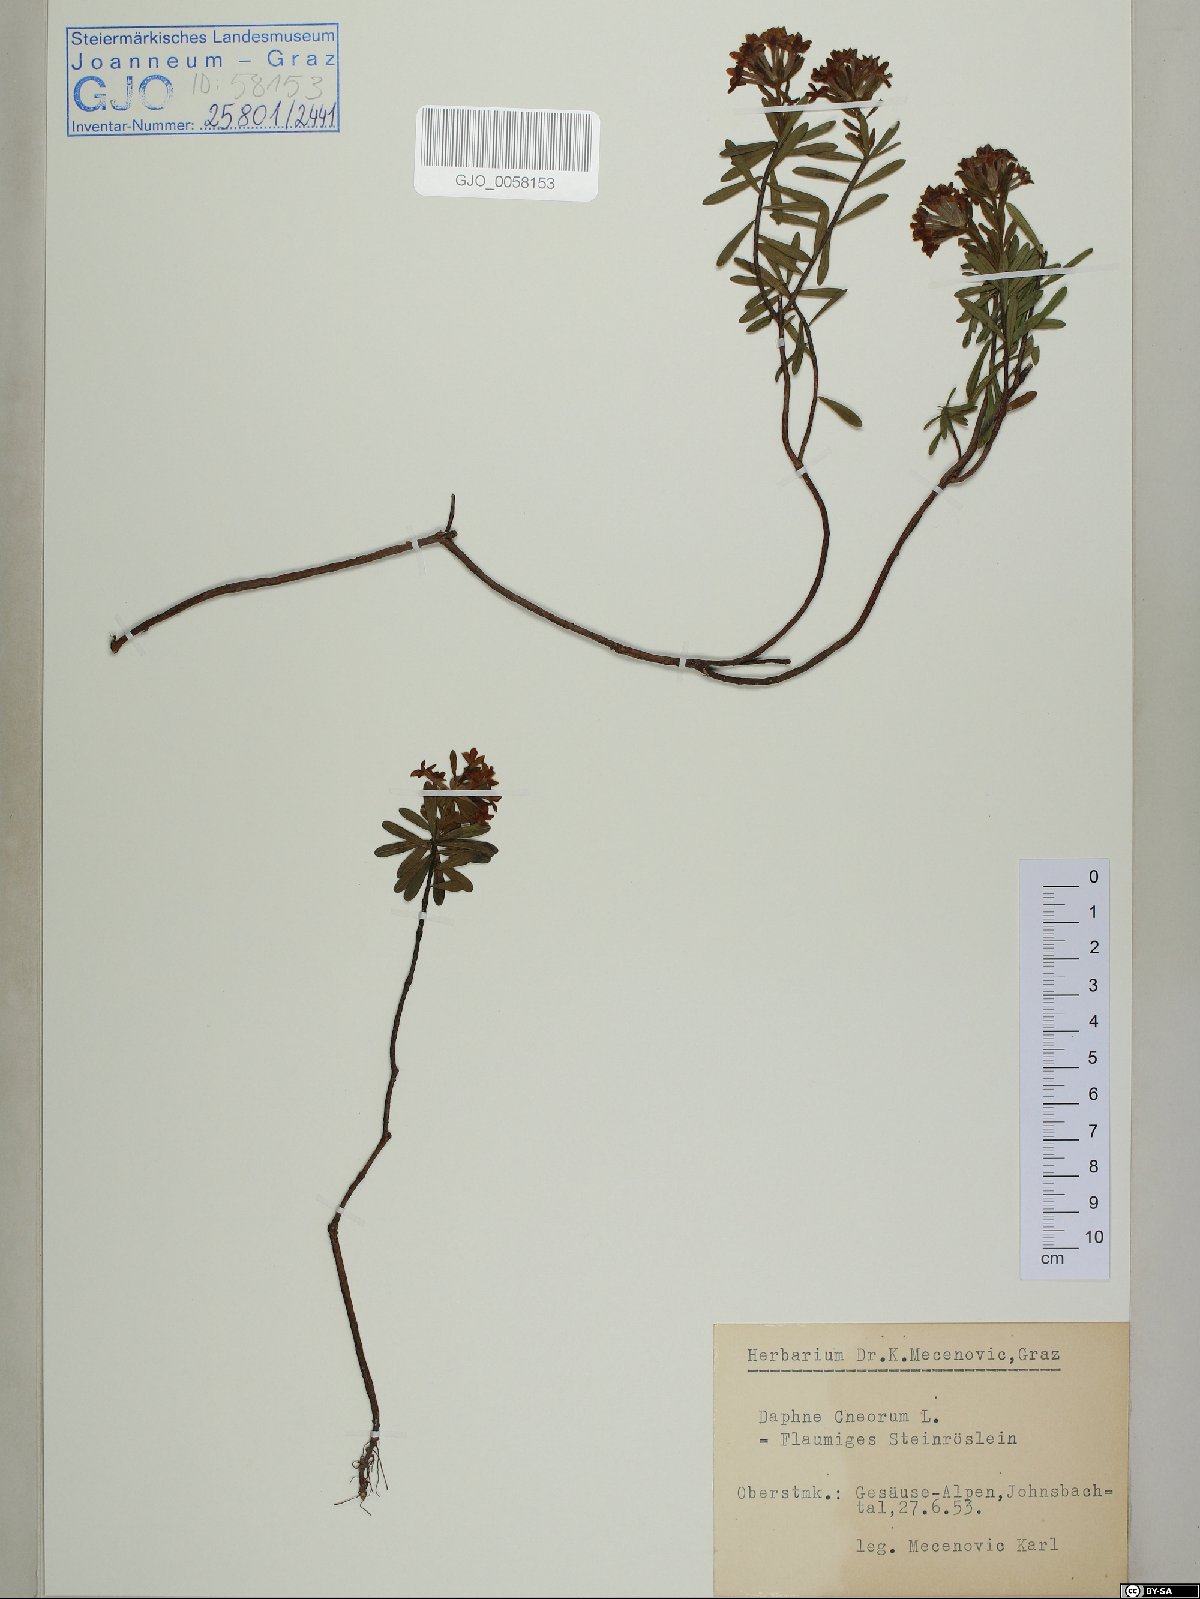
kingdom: Plantae
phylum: Tracheophyta
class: Magnoliopsida
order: Malvales
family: Thymelaeaceae
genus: Daphne
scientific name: Daphne cneorum
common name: Garland-flower
